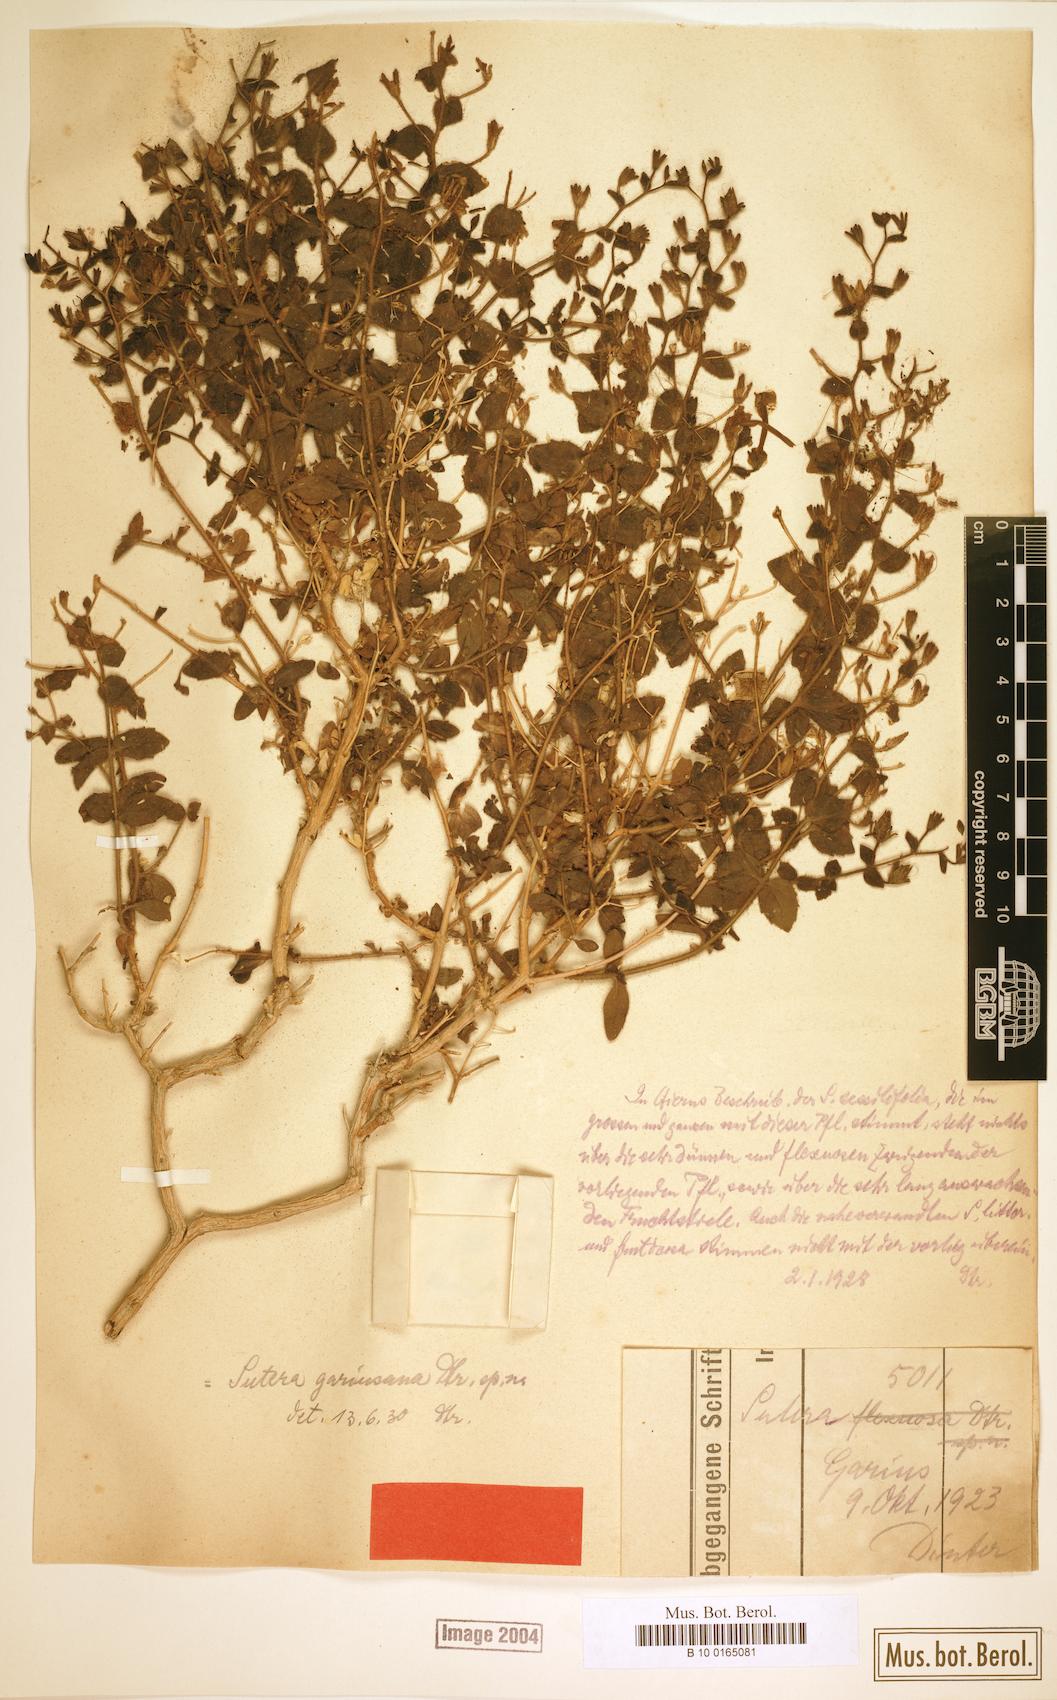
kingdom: Plantae
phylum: Tracheophyta
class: Magnoliopsida
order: Lamiales
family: Scrophulariaceae
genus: Jamesbrittenia
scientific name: Jamesbrittenia sessilifolia
